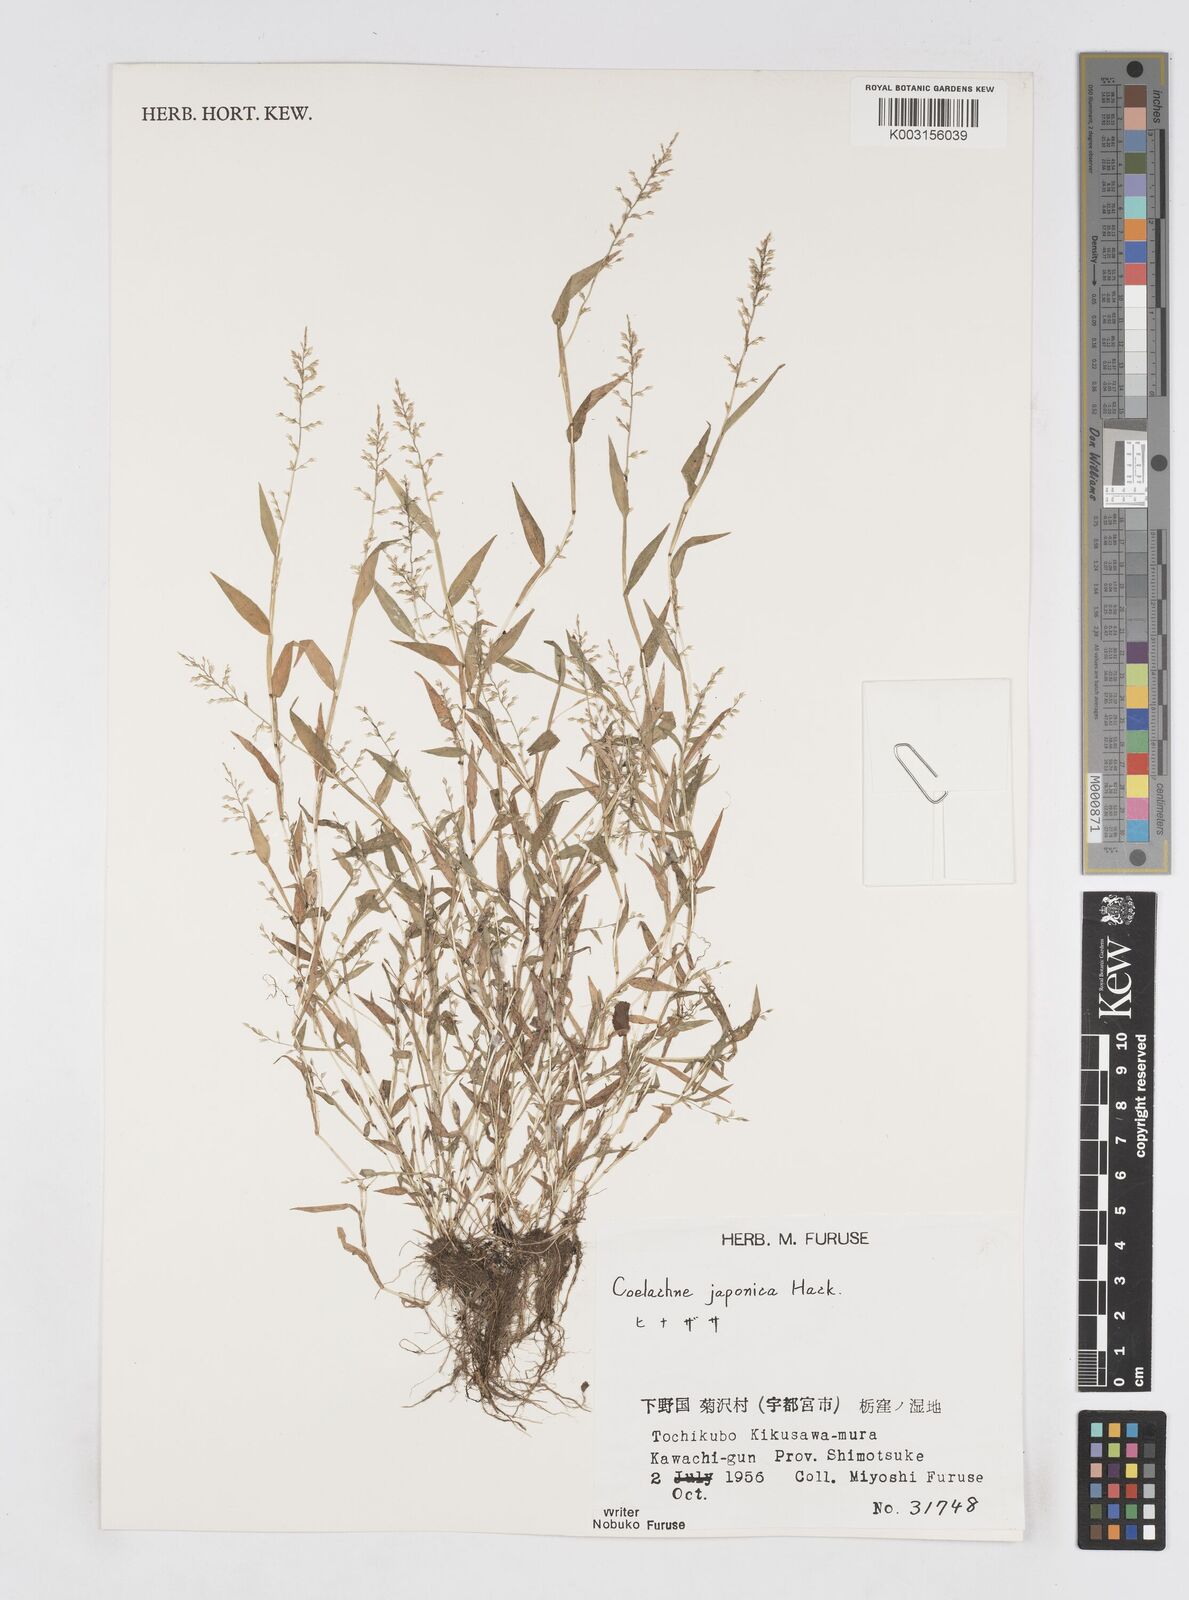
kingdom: Plantae
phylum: Tracheophyta
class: Liliopsida
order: Poales
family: Poaceae
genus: Coelachne
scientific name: Coelachne japonica
